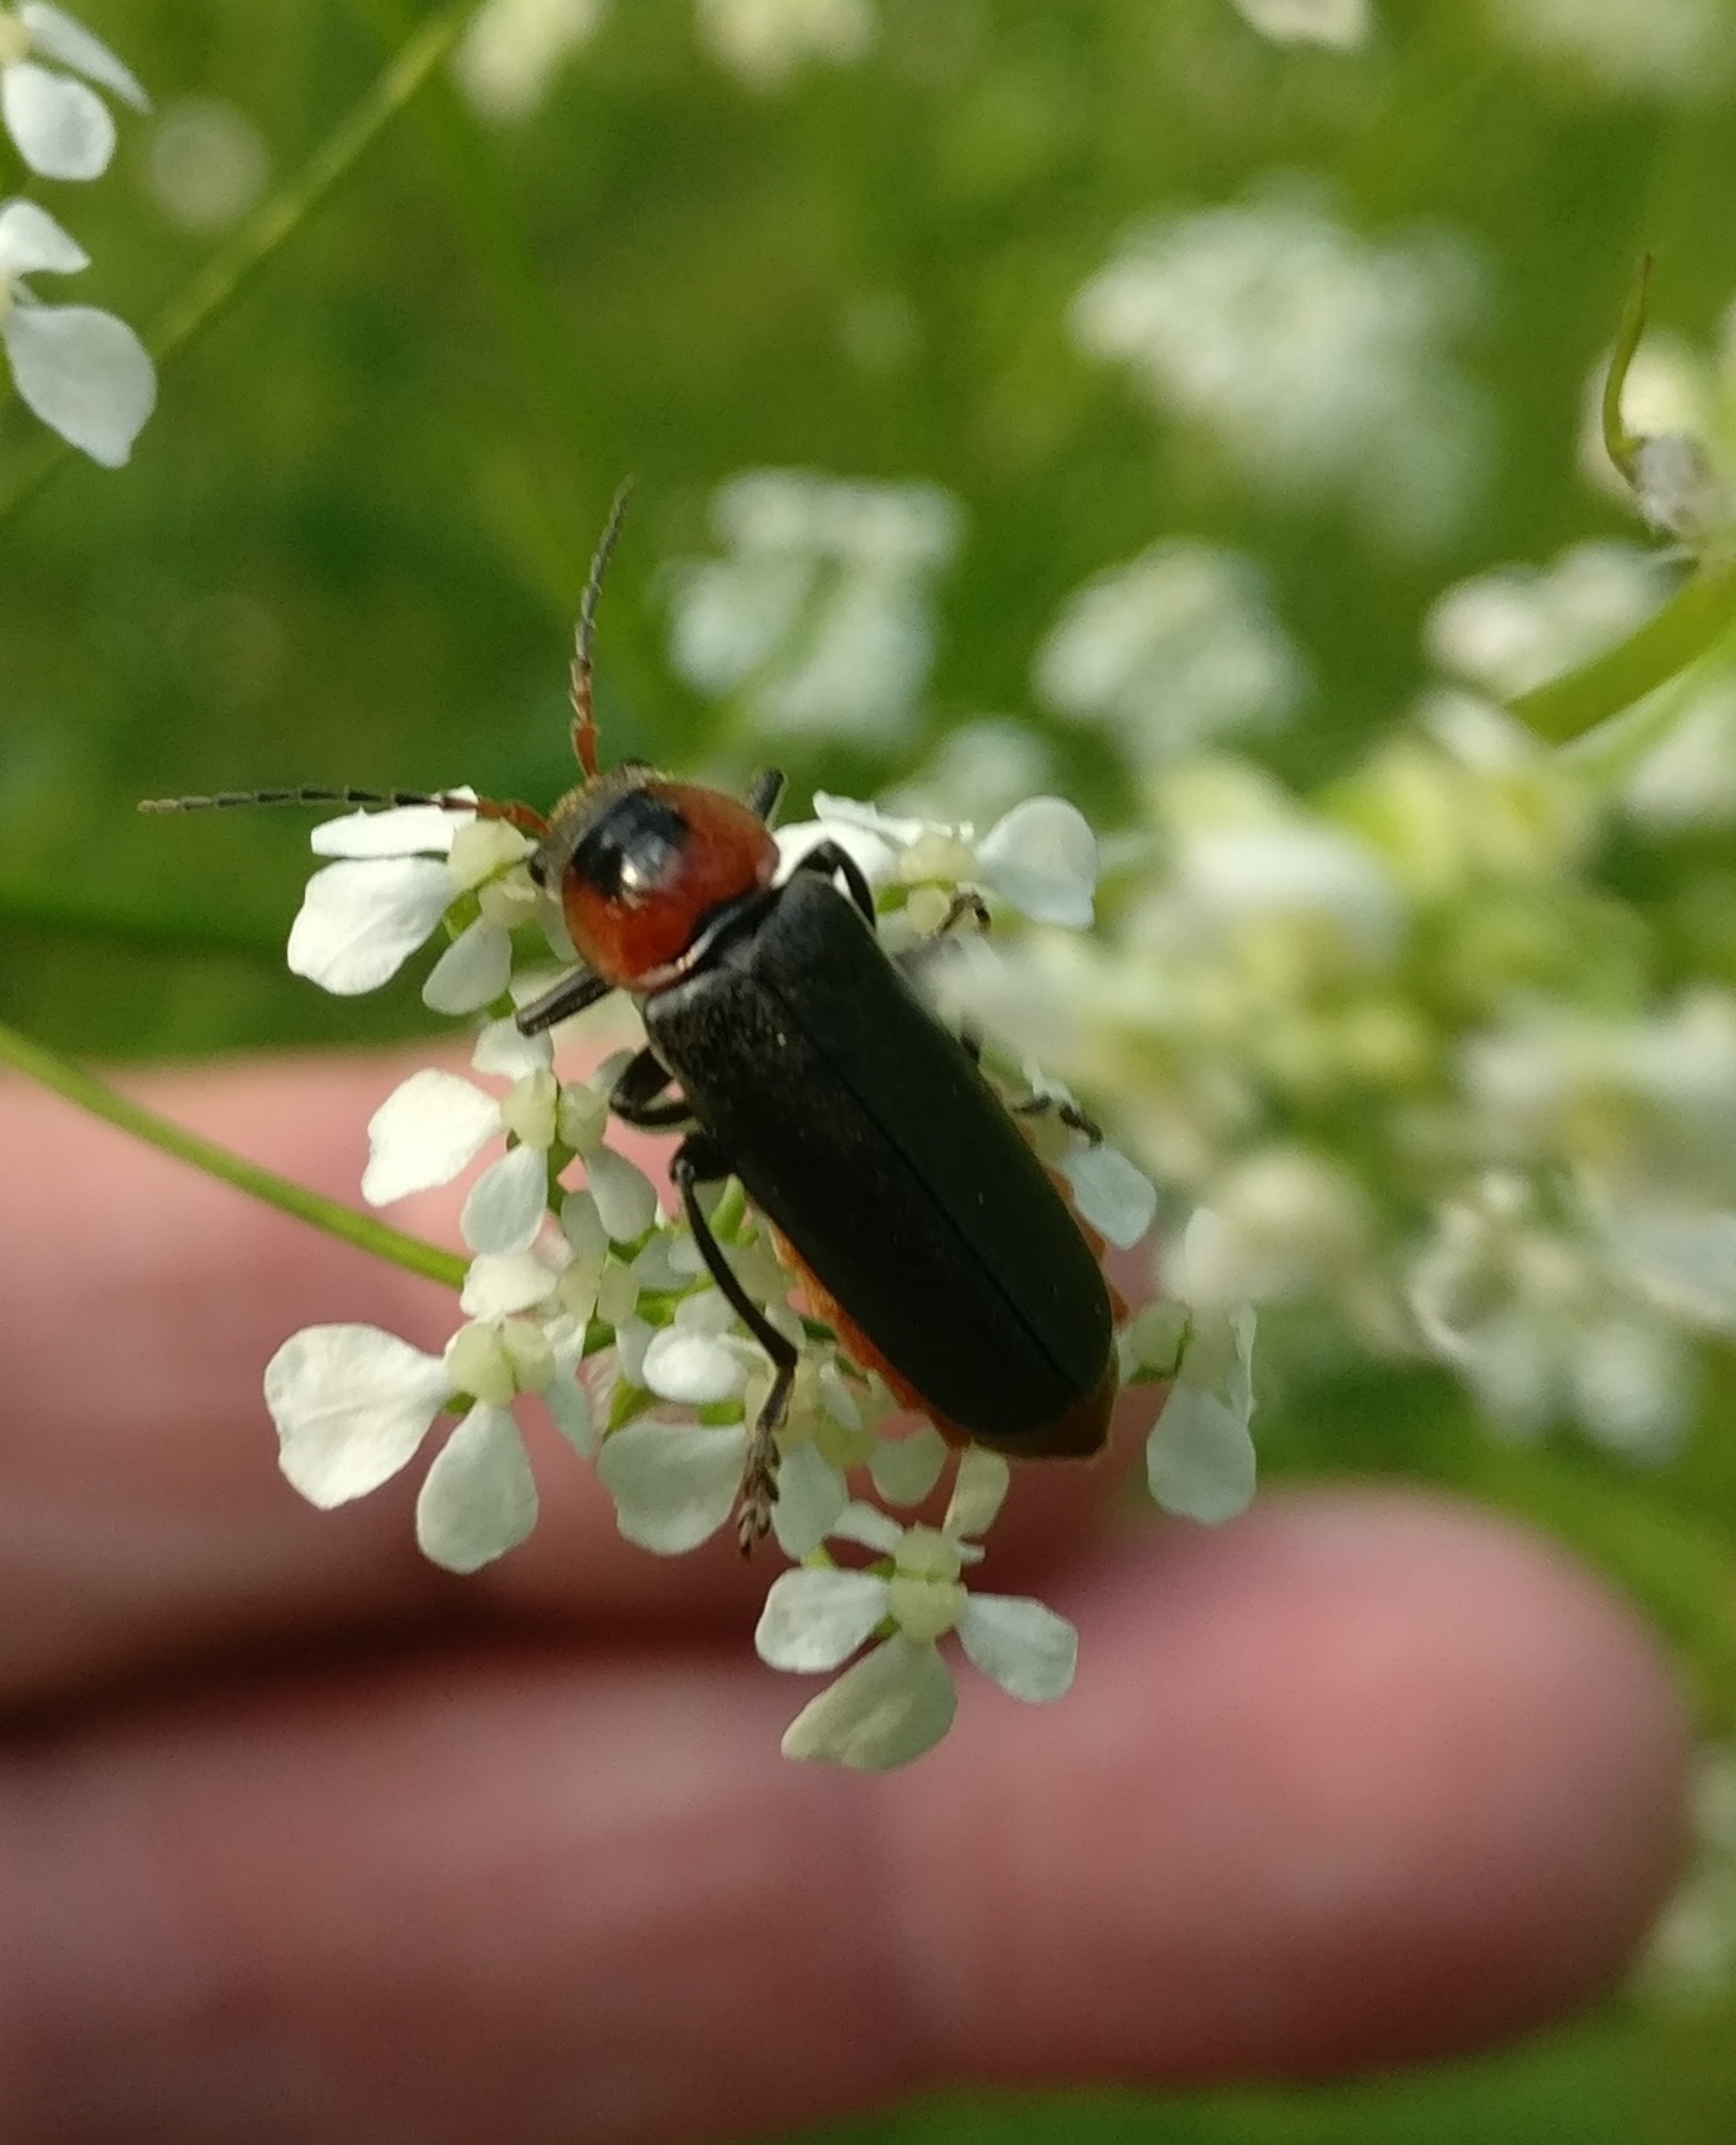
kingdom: Animalia
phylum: Arthropoda
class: Insecta
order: Coleoptera
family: Cantharidae
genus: Cantharis
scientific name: Cantharis fusca
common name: Stor blødvinge
